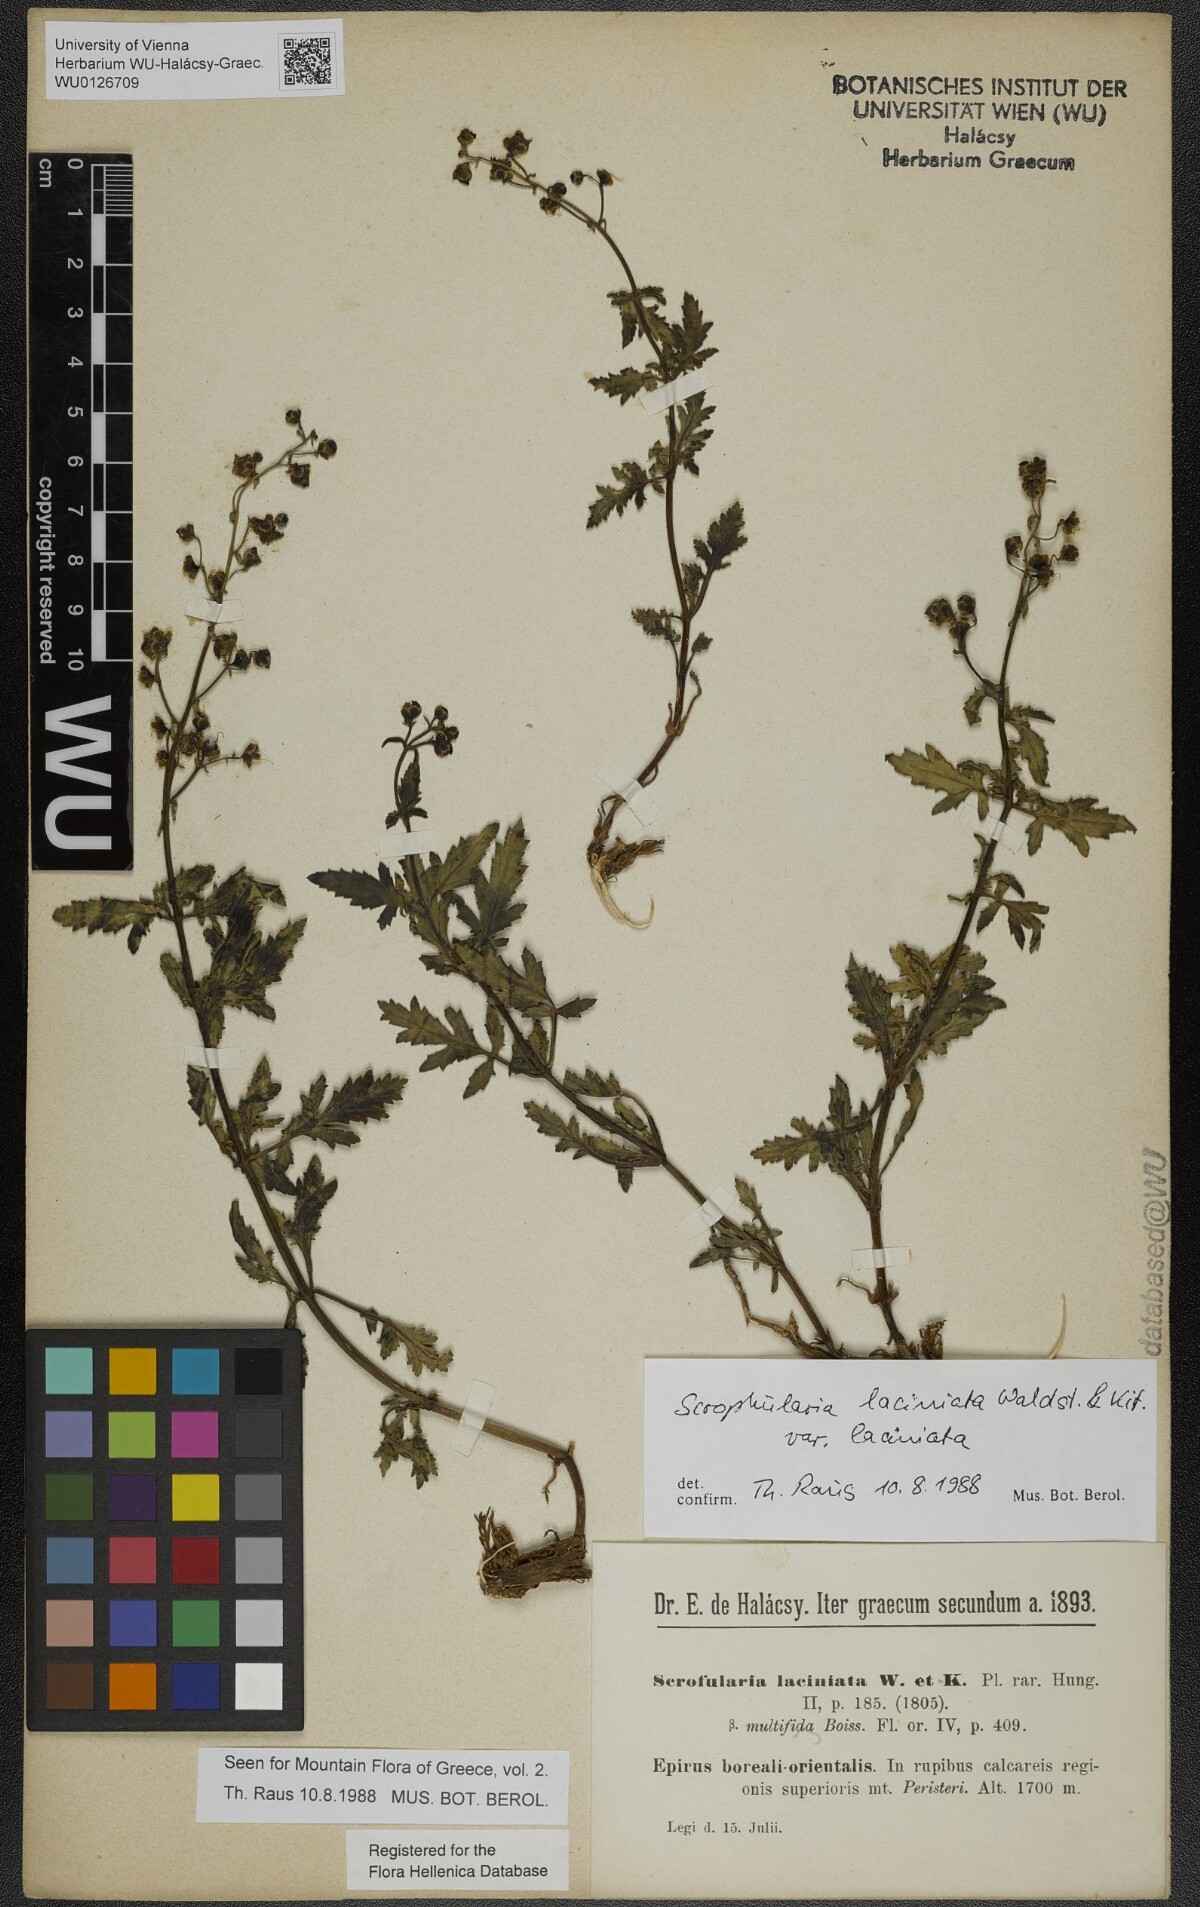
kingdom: Plantae
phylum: Tracheophyta
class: Magnoliopsida
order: Lamiales
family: Scrophulariaceae
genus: Scrophularia
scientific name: Scrophularia laciniata
